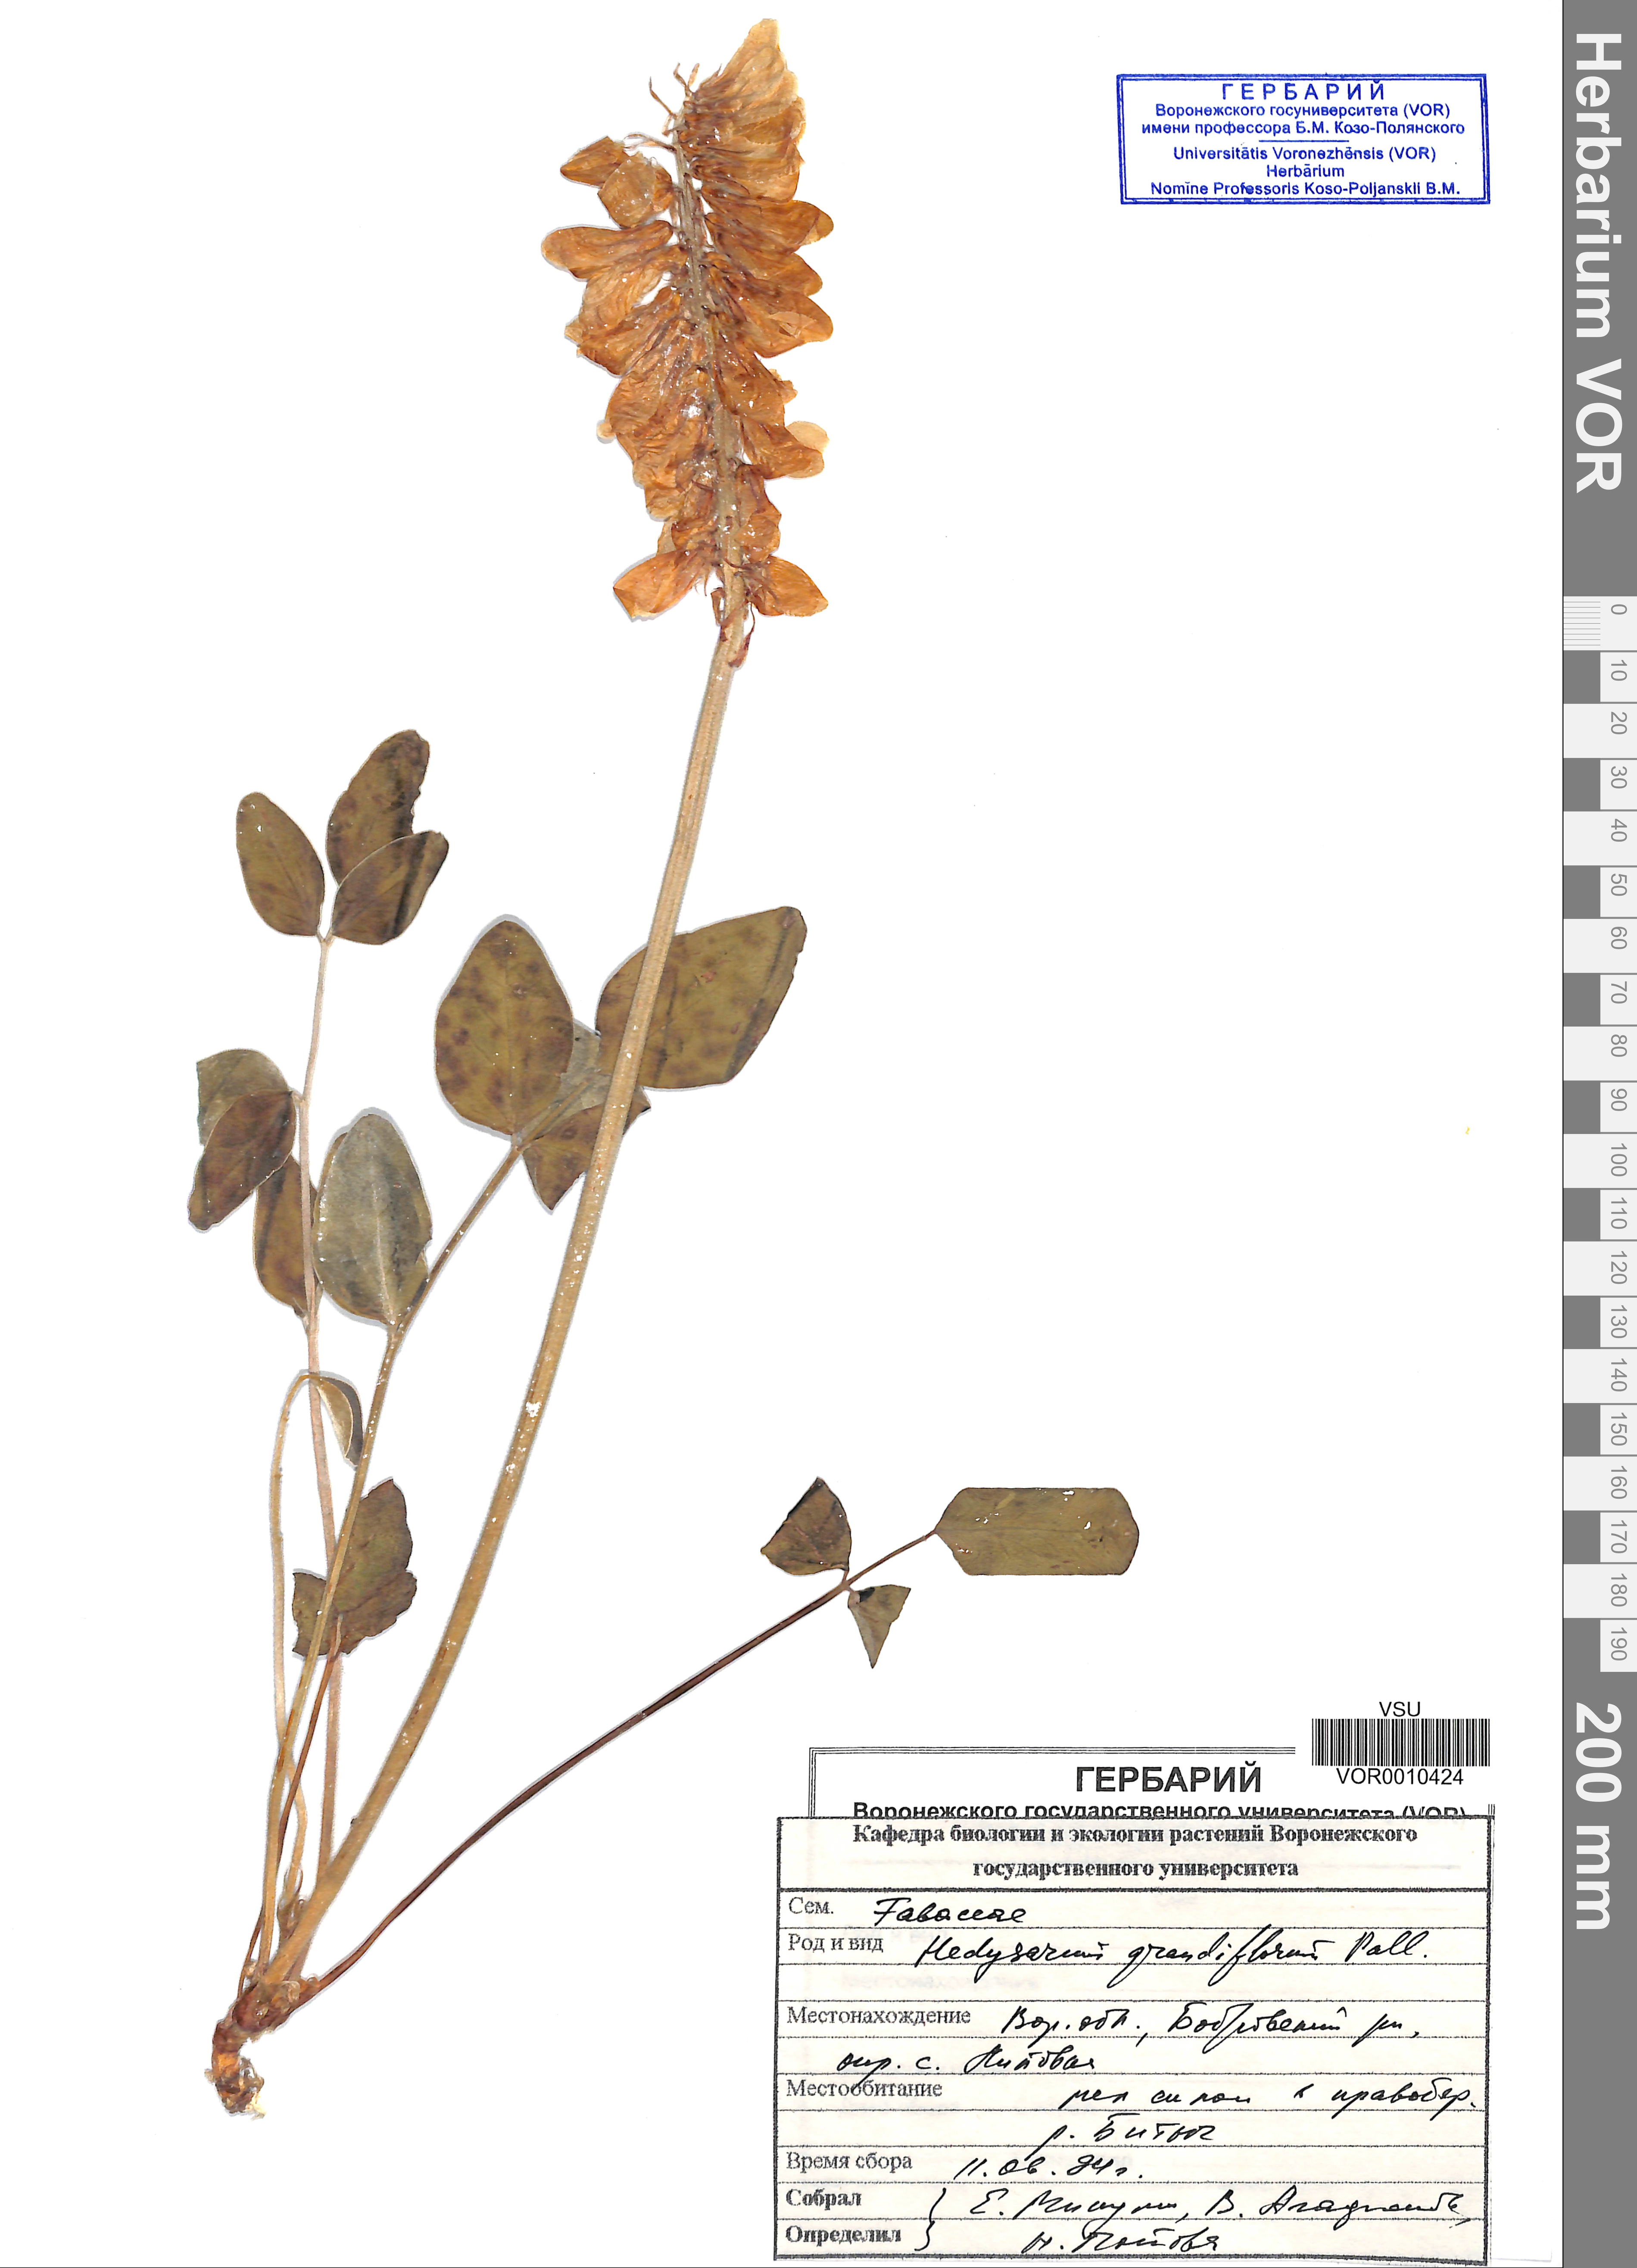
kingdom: Plantae
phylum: Tracheophyta
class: Magnoliopsida
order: Fabales
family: Fabaceae
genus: Hedysarum
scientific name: Hedysarum grandiflorum
